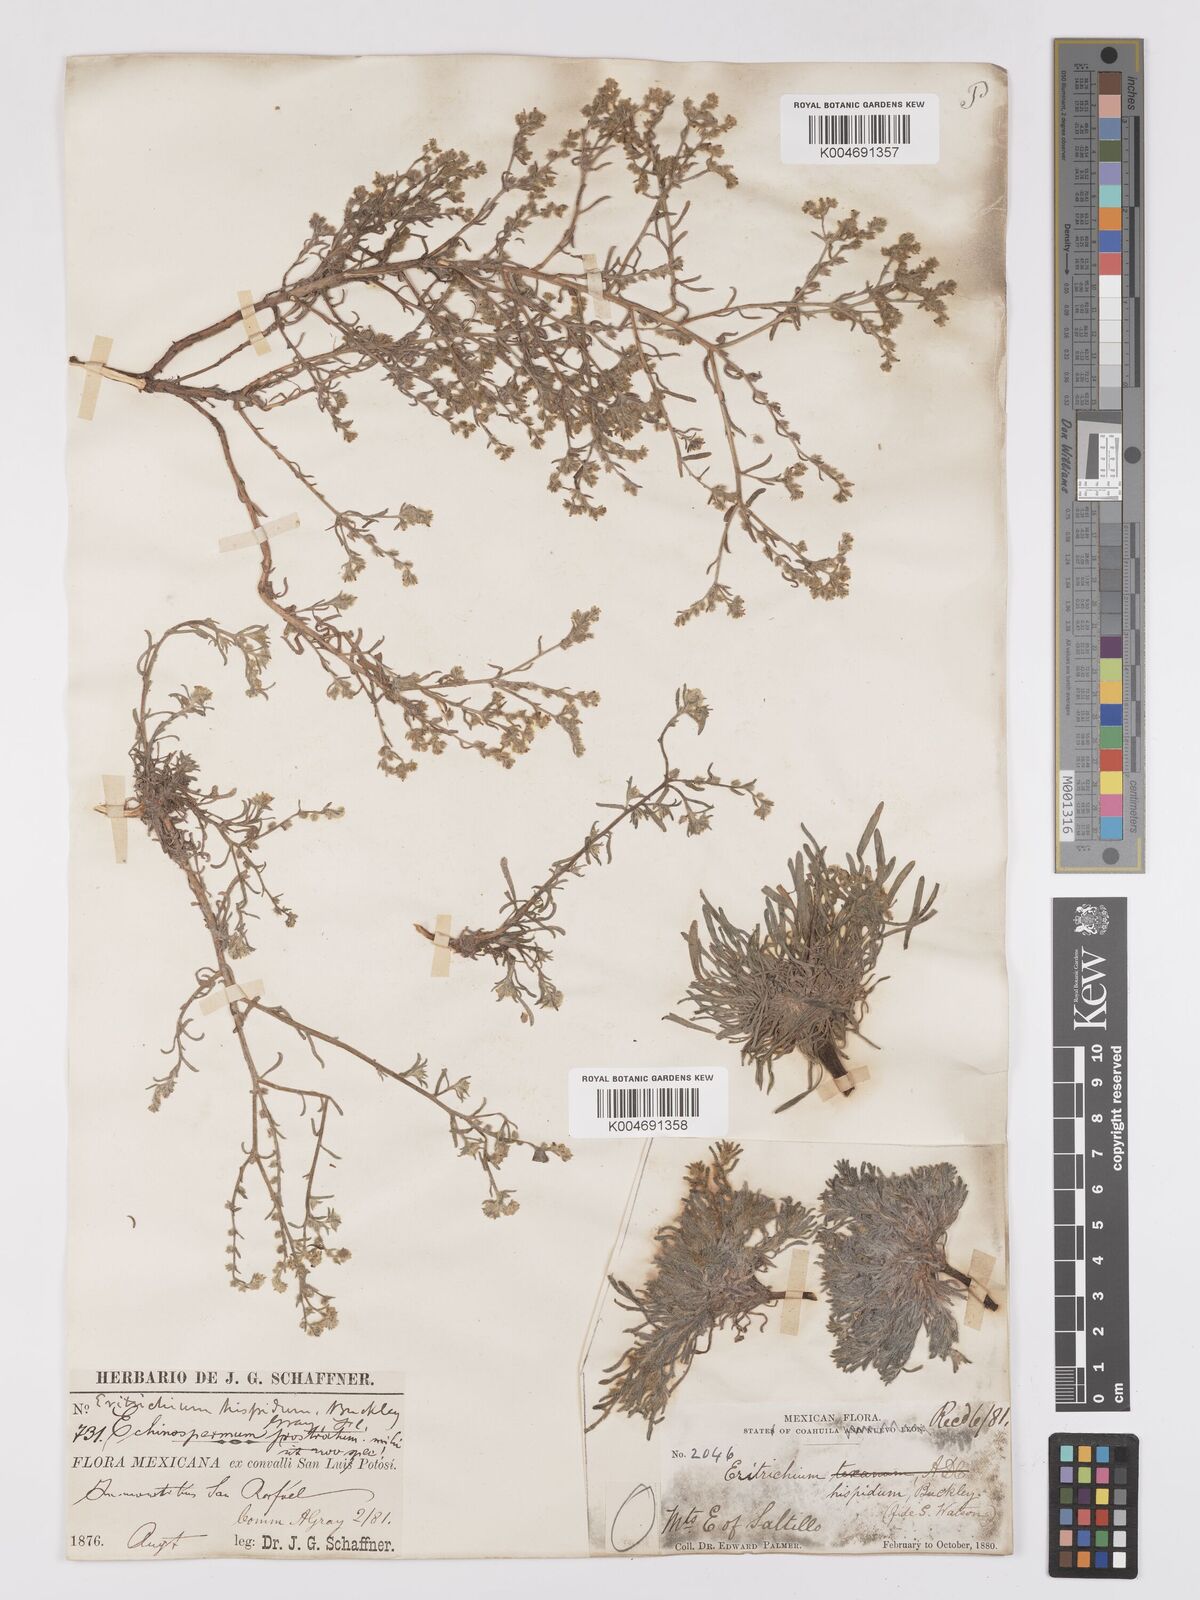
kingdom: Plantae
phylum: Tracheophyta
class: Magnoliopsida
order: Boraginales
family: Boraginaceae
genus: Johnstonella
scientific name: Johnstonella albida
